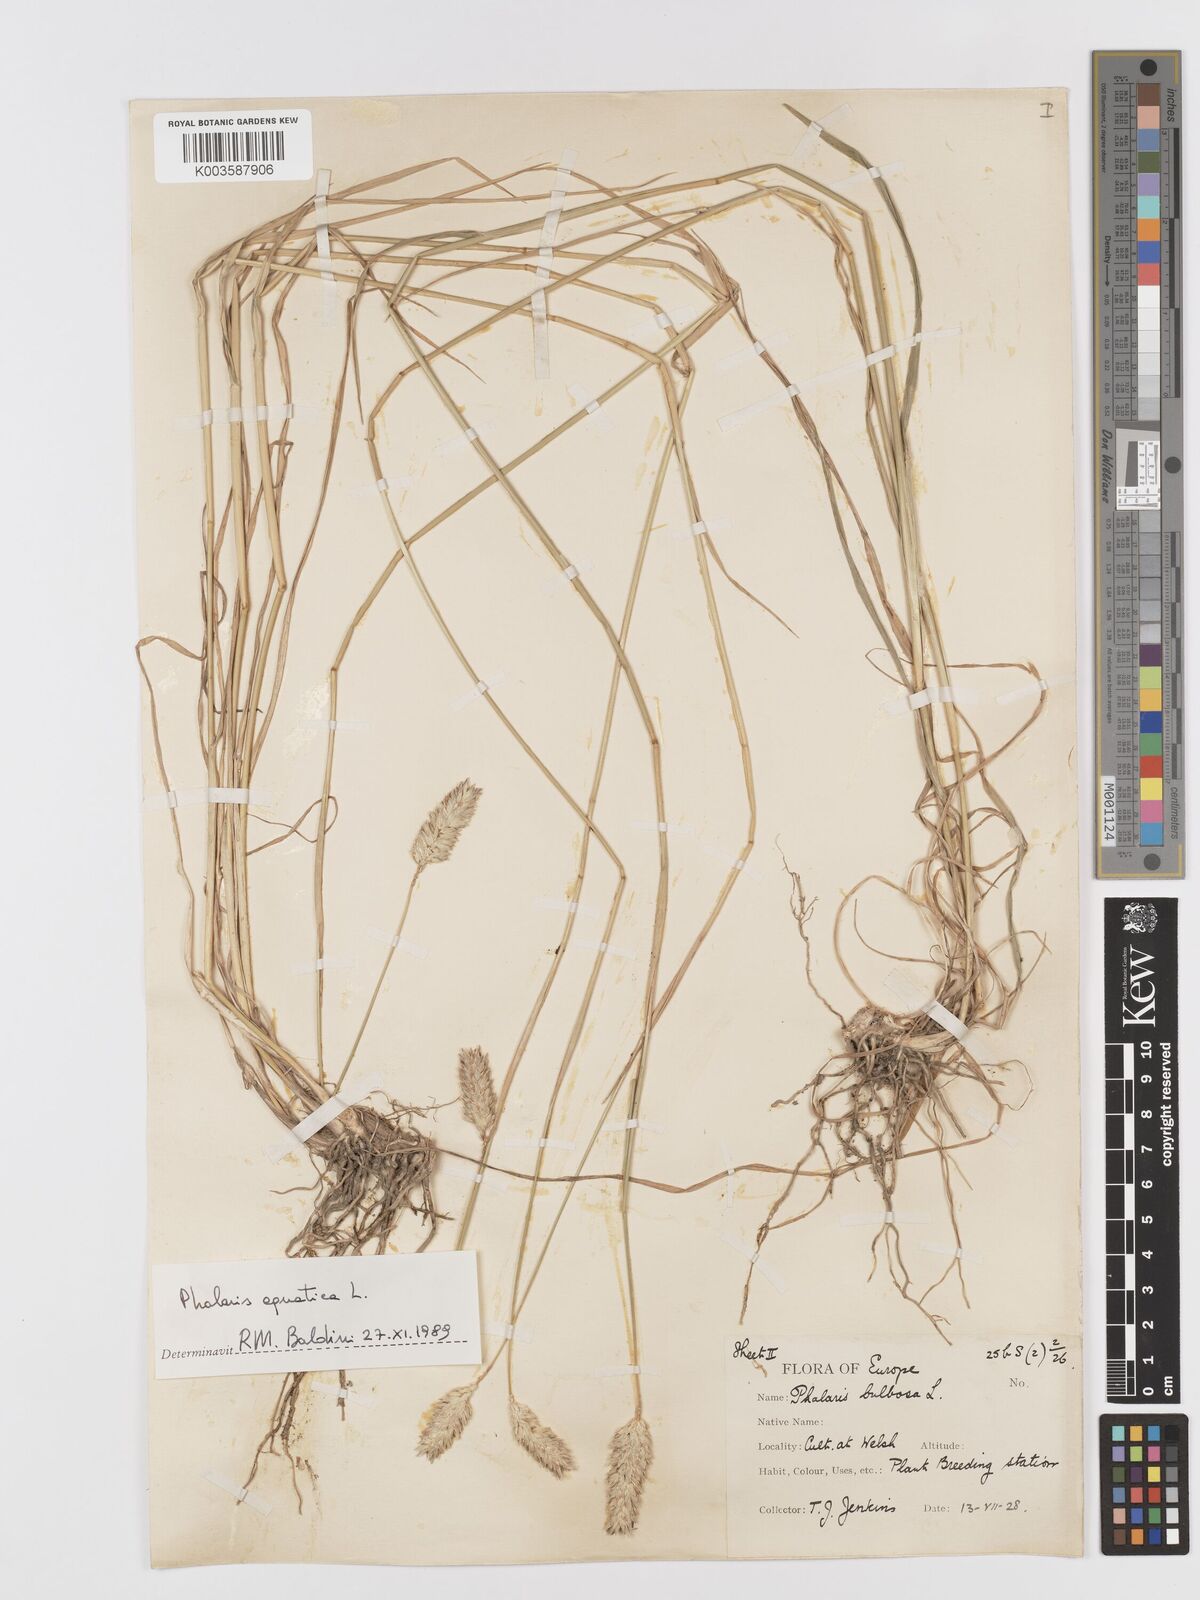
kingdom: Plantae
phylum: Tracheophyta
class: Liliopsida
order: Poales
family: Poaceae
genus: Phalaris
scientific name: Phalaris
